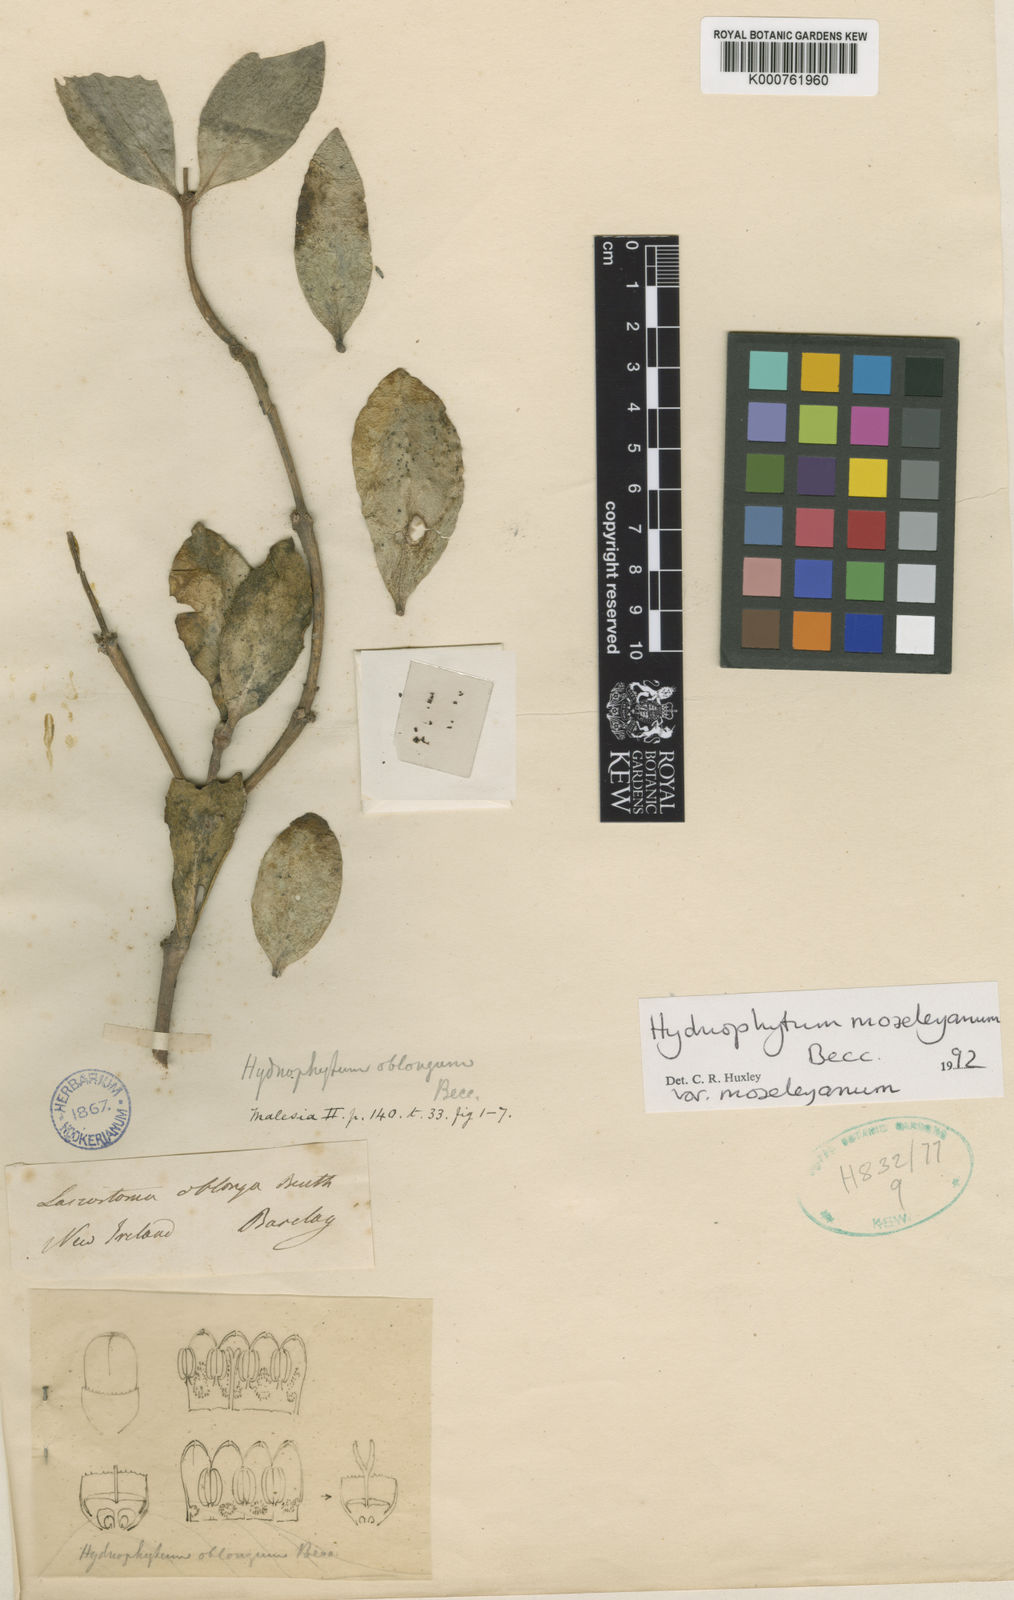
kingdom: Plantae
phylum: Tracheophyta
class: Magnoliopsida
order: Gentianales
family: Rubiaceae
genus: Hydnophytum
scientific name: Hydnophytum moseleyanum
